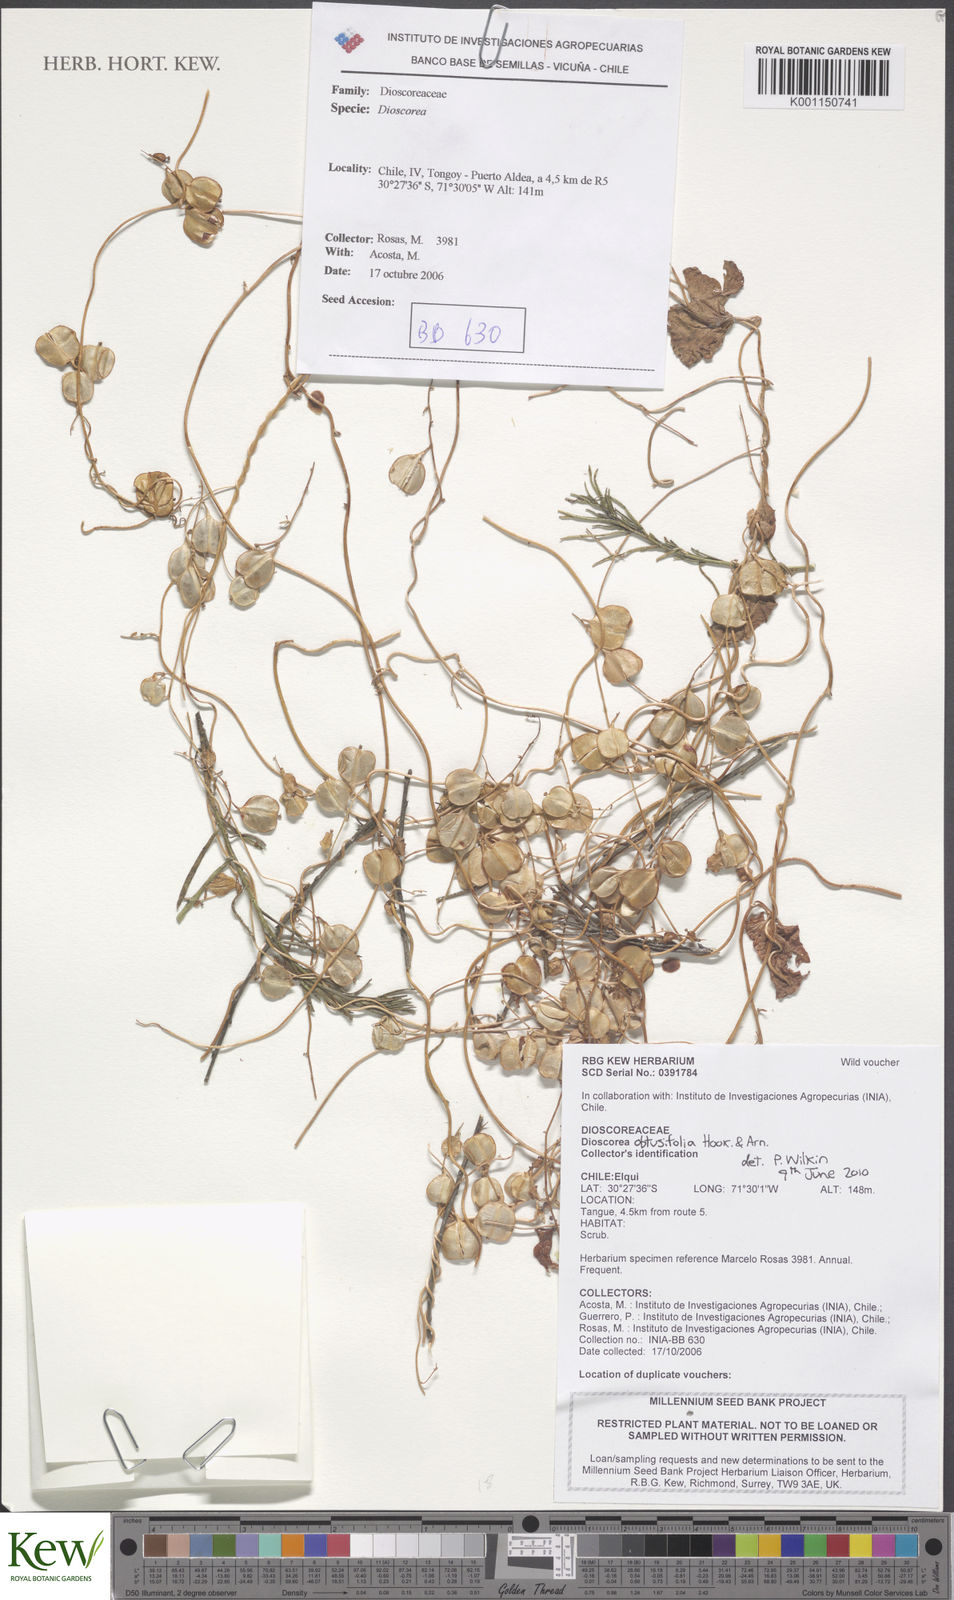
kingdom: Plantae
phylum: Tracheophyta
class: Liliopsida
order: Dioscoreales
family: Dioscoreaceae
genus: Dioscorea
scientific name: Dioscorea obtusifolia
